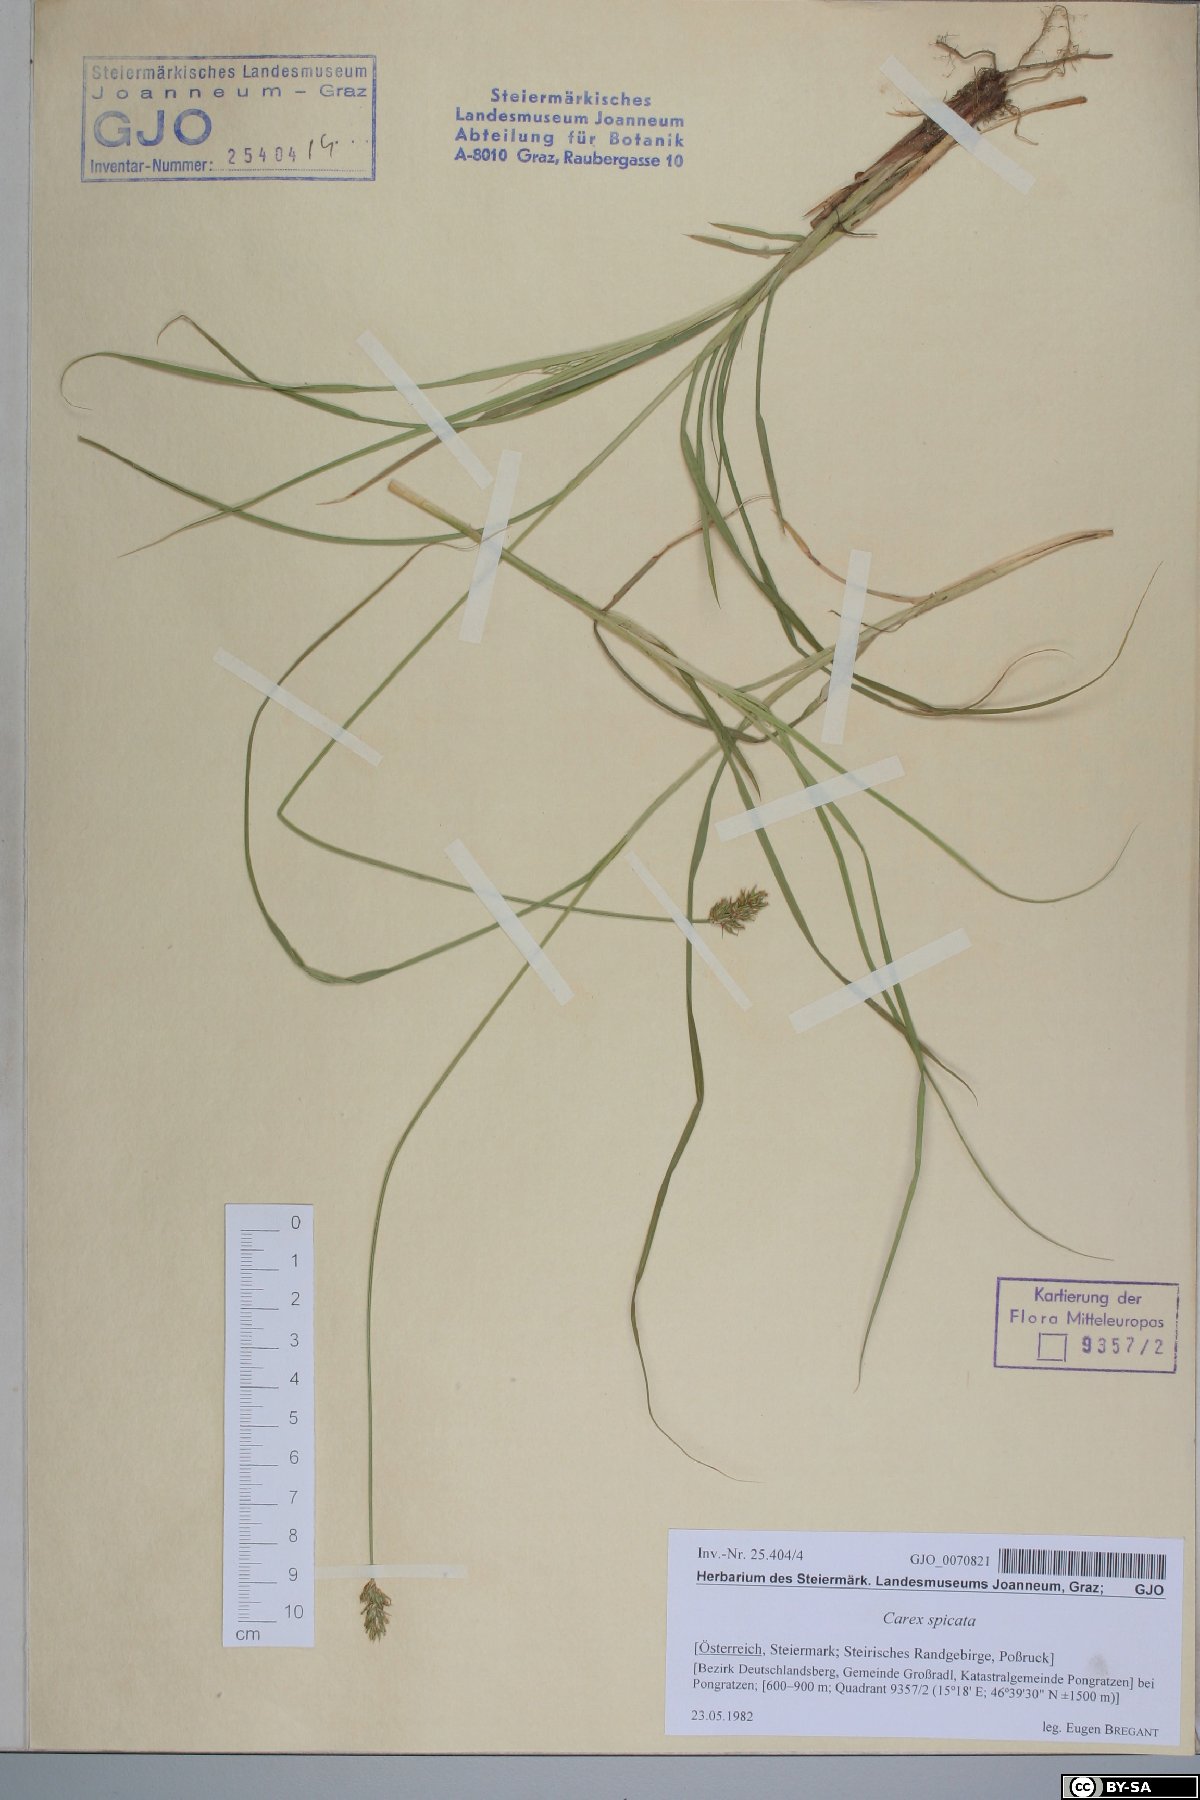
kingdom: Plantae
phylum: Tracheophyta
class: Liliopsida
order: Poales
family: Cyperaceae
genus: Carex
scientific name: Carex spicata
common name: Spiked sedge
